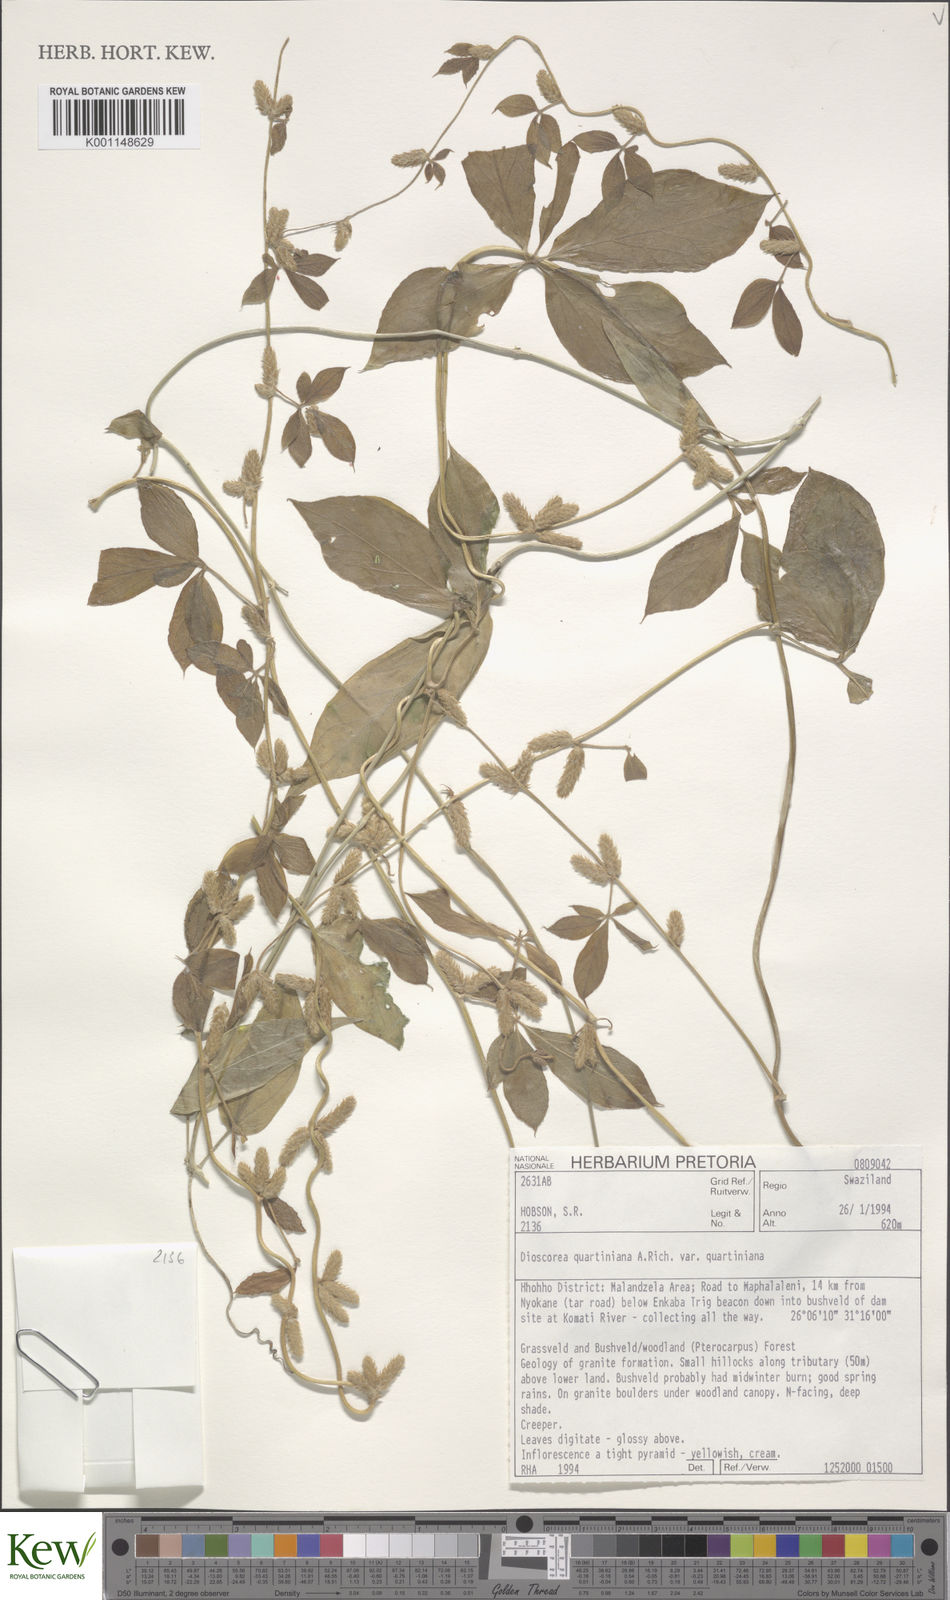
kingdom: Plantae
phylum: Tracheophyta
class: Liliopsida
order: Dioscoreales
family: Dioscoreaceae
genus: Dioscorea
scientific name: Dioscorea quartiniana
